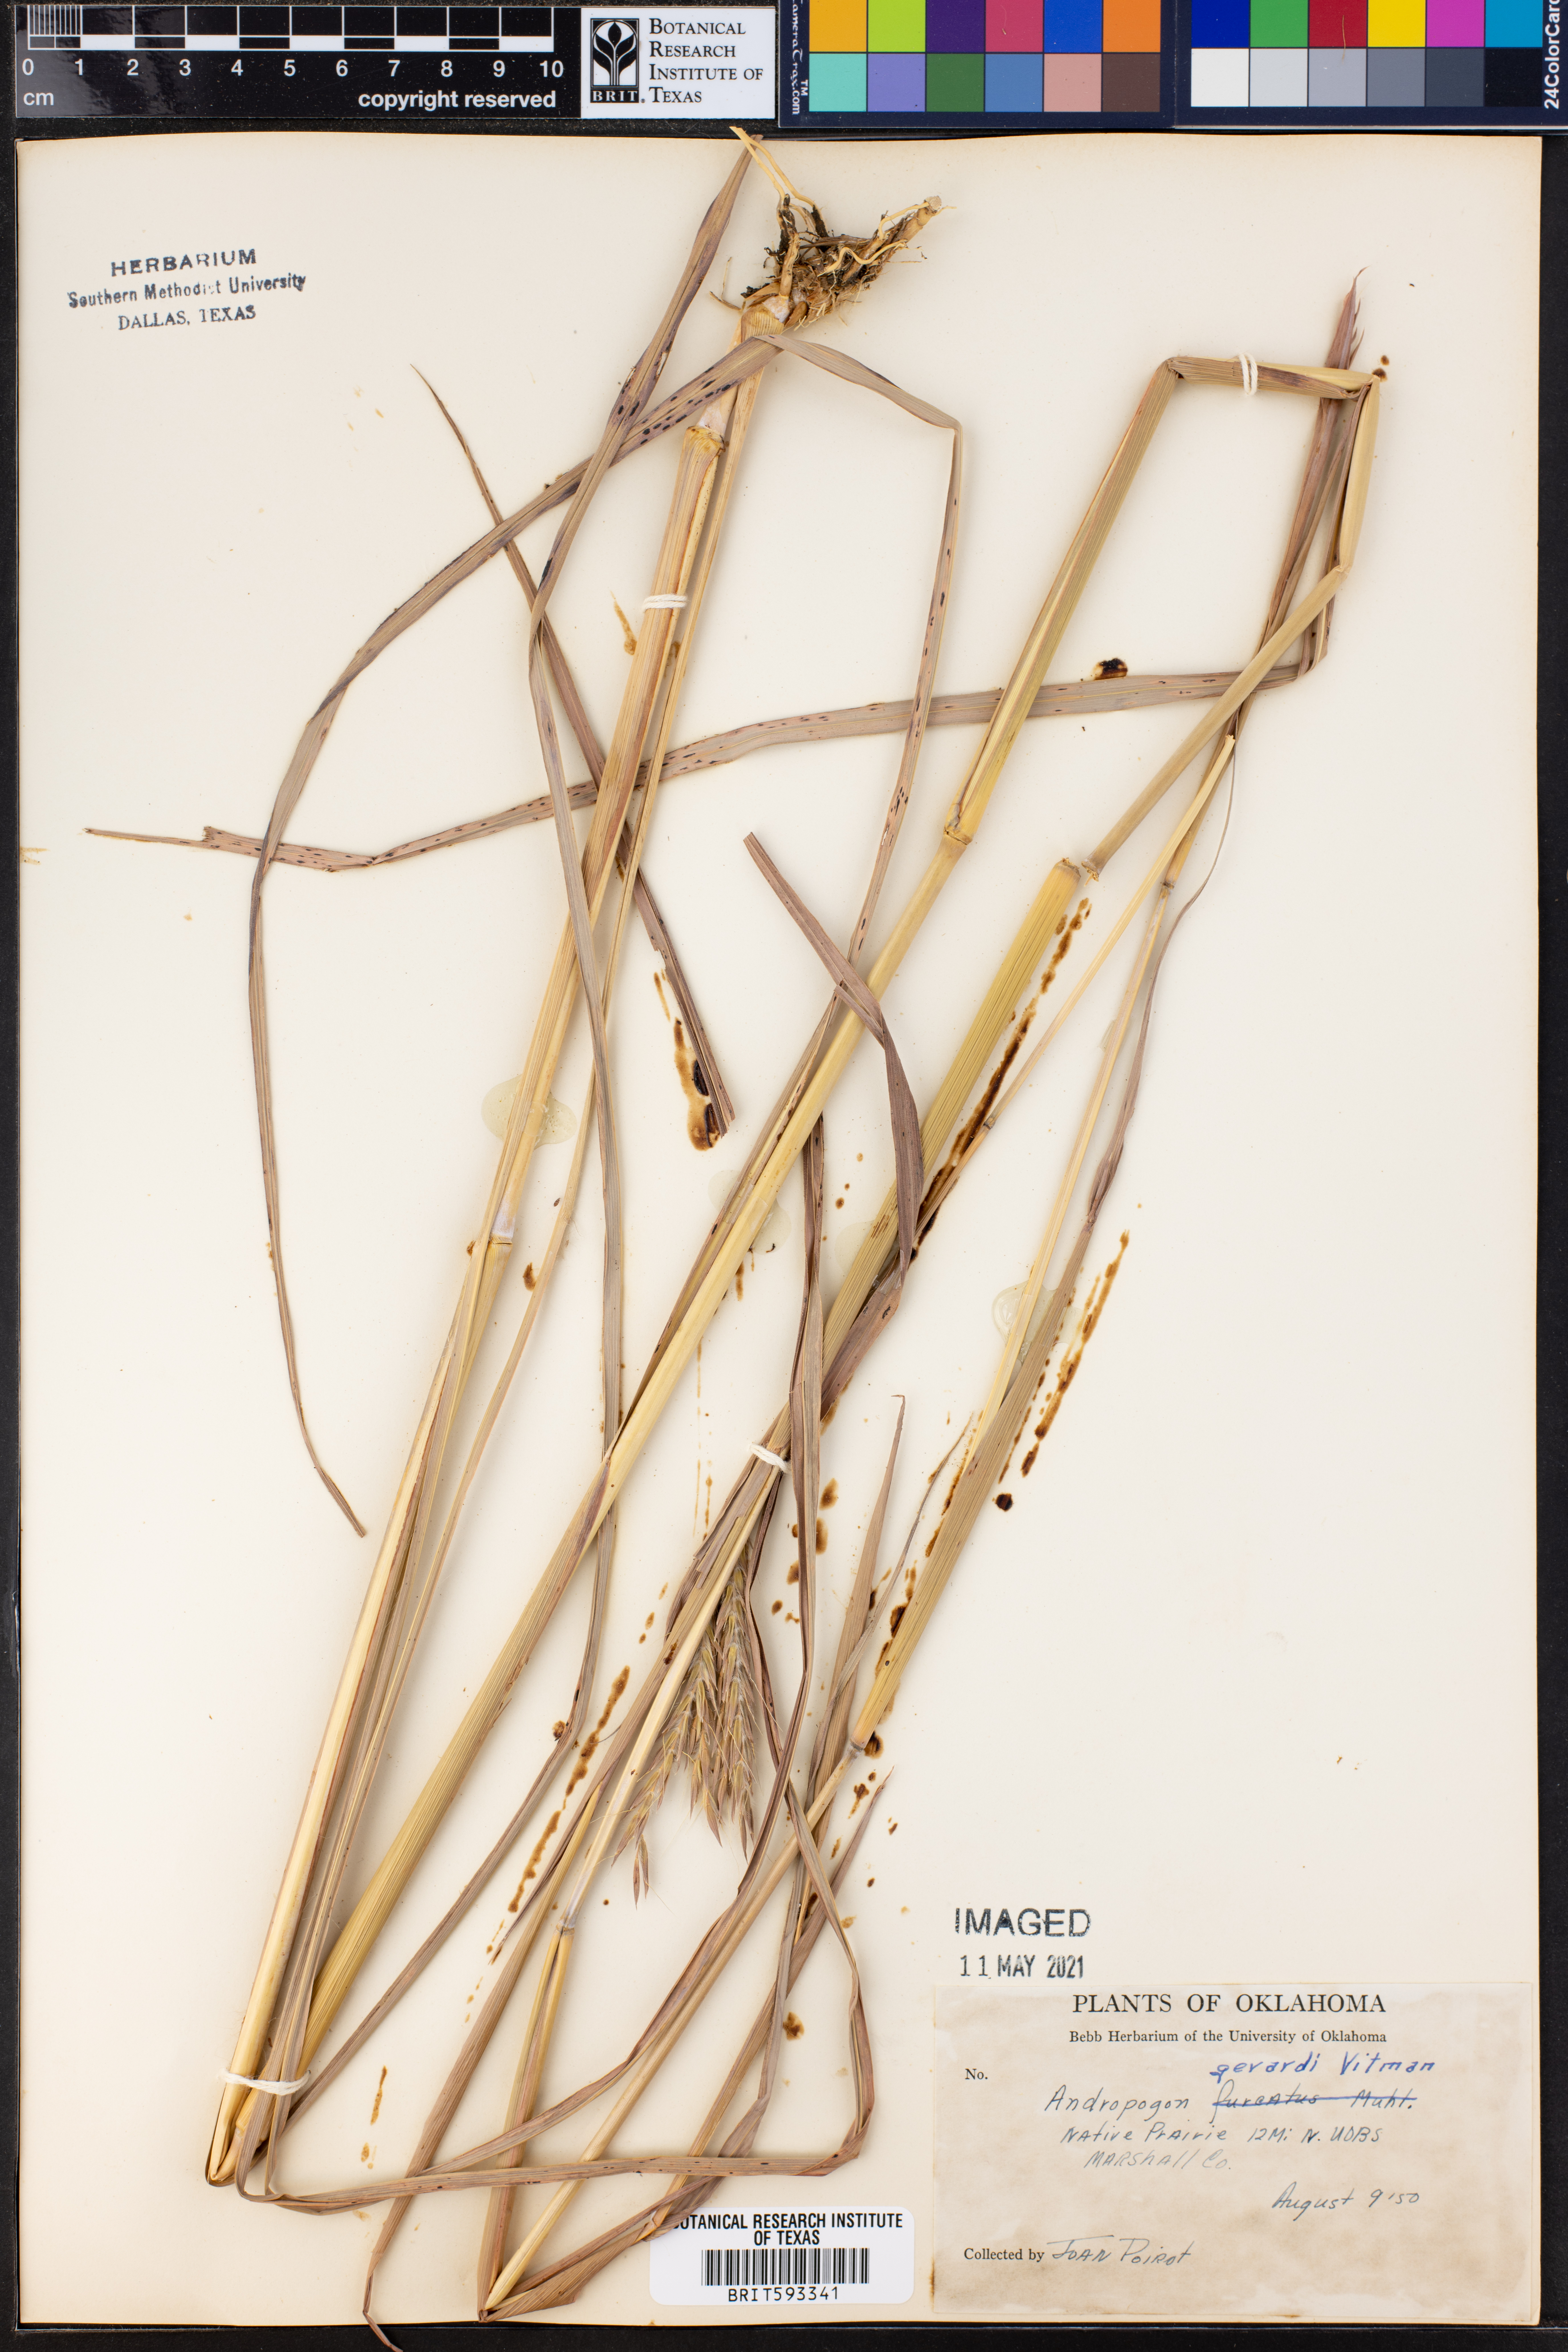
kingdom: Plantae
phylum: Tracheophyta
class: Liliopsida
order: Poales
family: Poaceae
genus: Andropogon
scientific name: Andropogon gerardi
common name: Big bluestem
